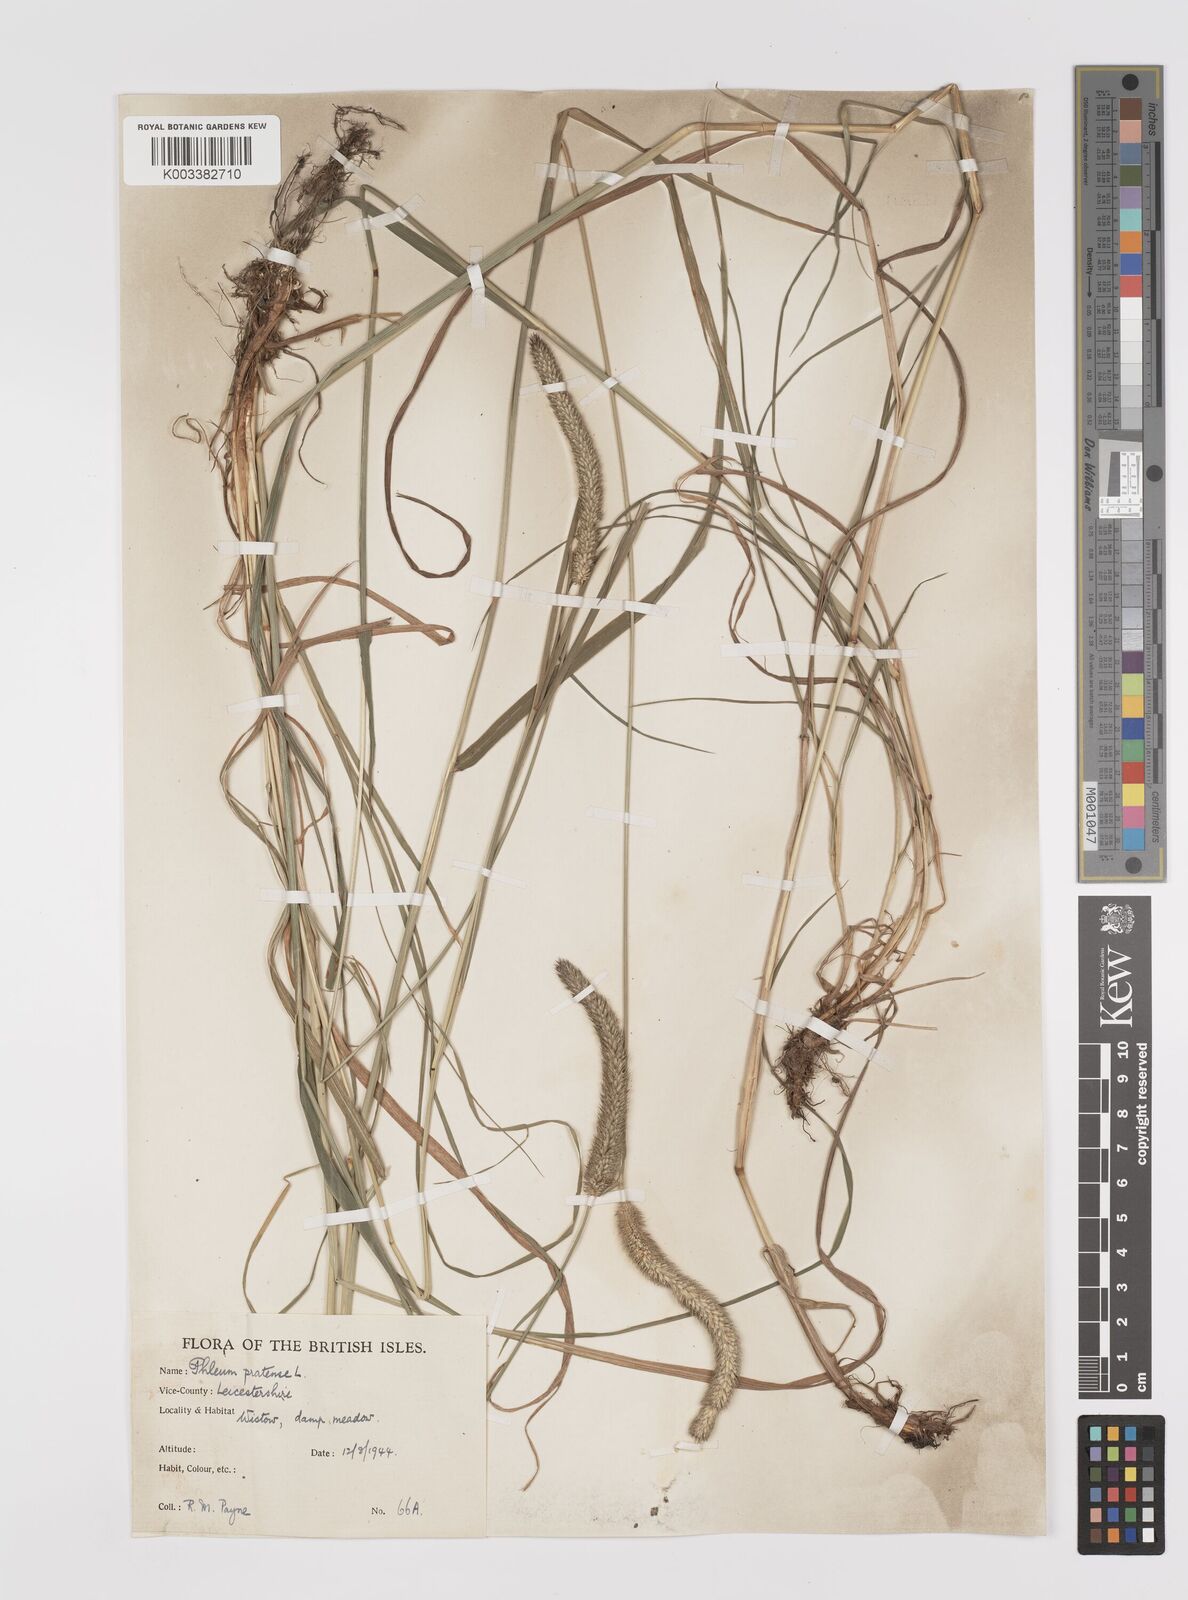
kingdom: Plantae
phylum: Tracheophyta
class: Liliopsida
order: Poales
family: Poaceae
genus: Phleum
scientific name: Phleum pratense
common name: Timothy grass
